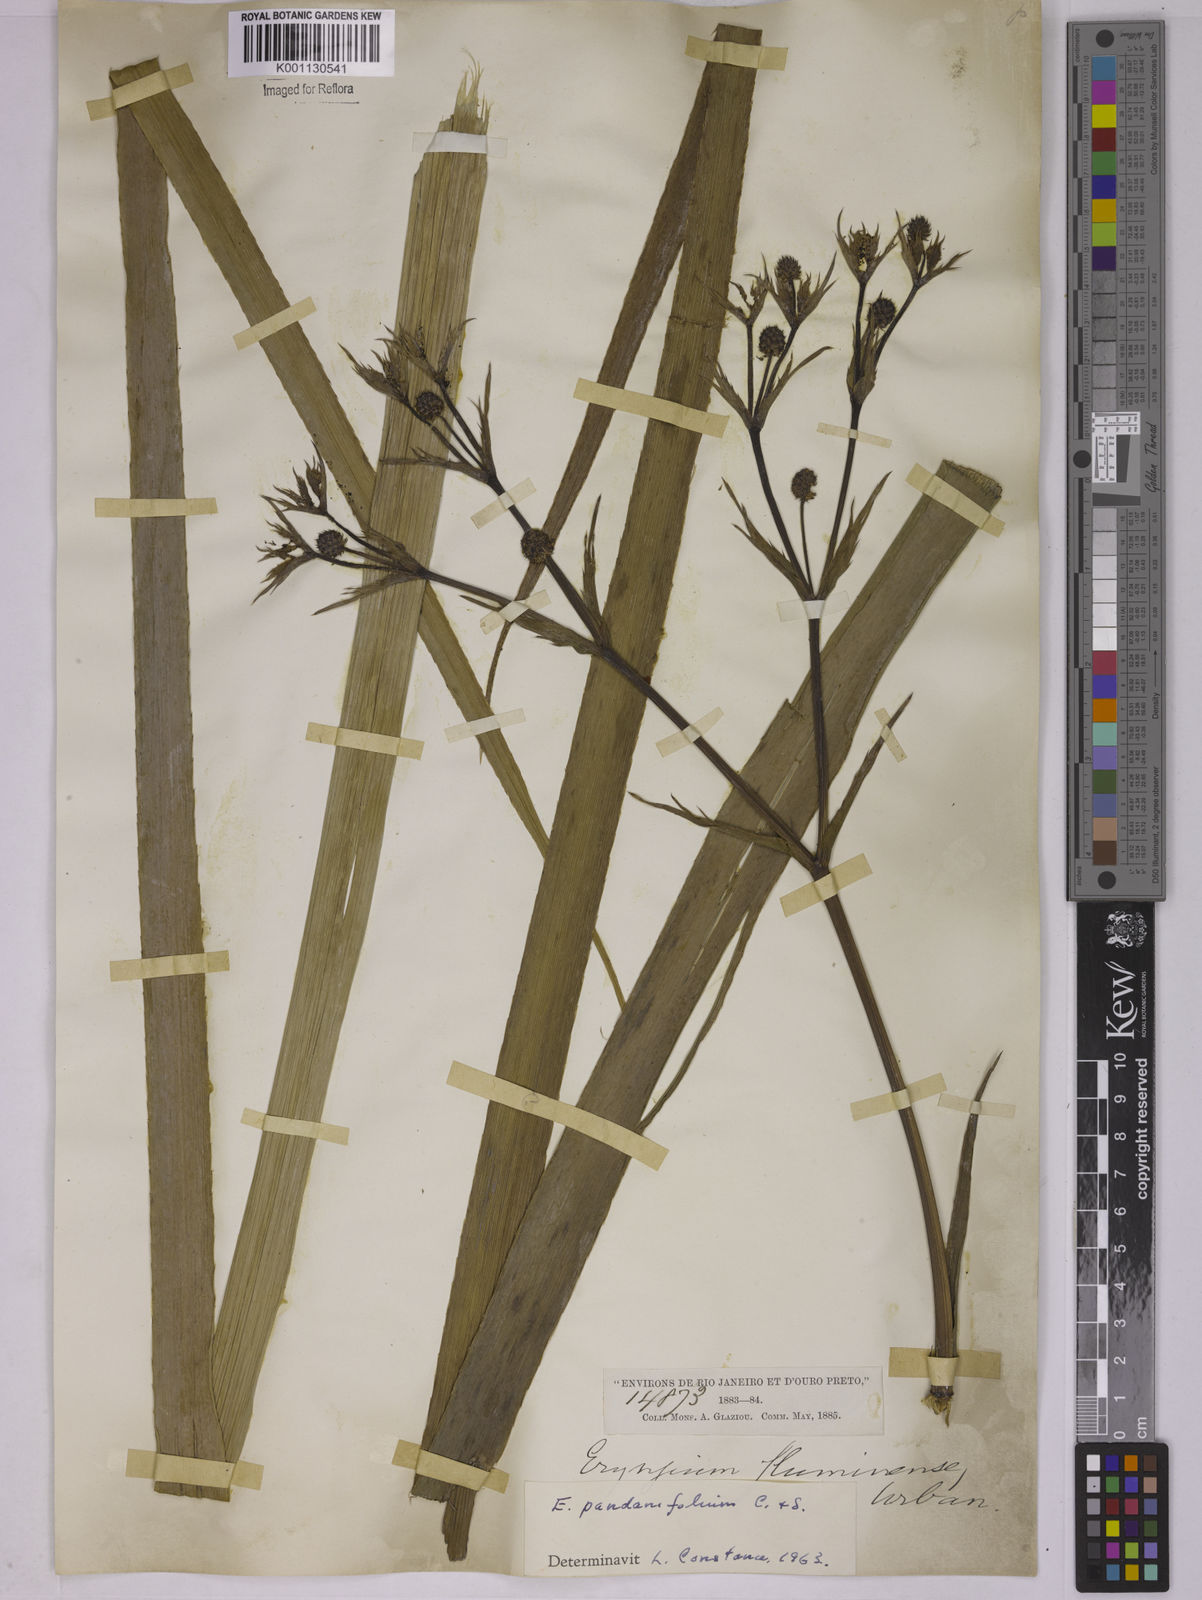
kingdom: Plantae
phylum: Tracheophyta
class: Magnoliopsida
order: Apiales
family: Apiaceae
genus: Eryngium
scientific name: Eryngium pandanifolium
